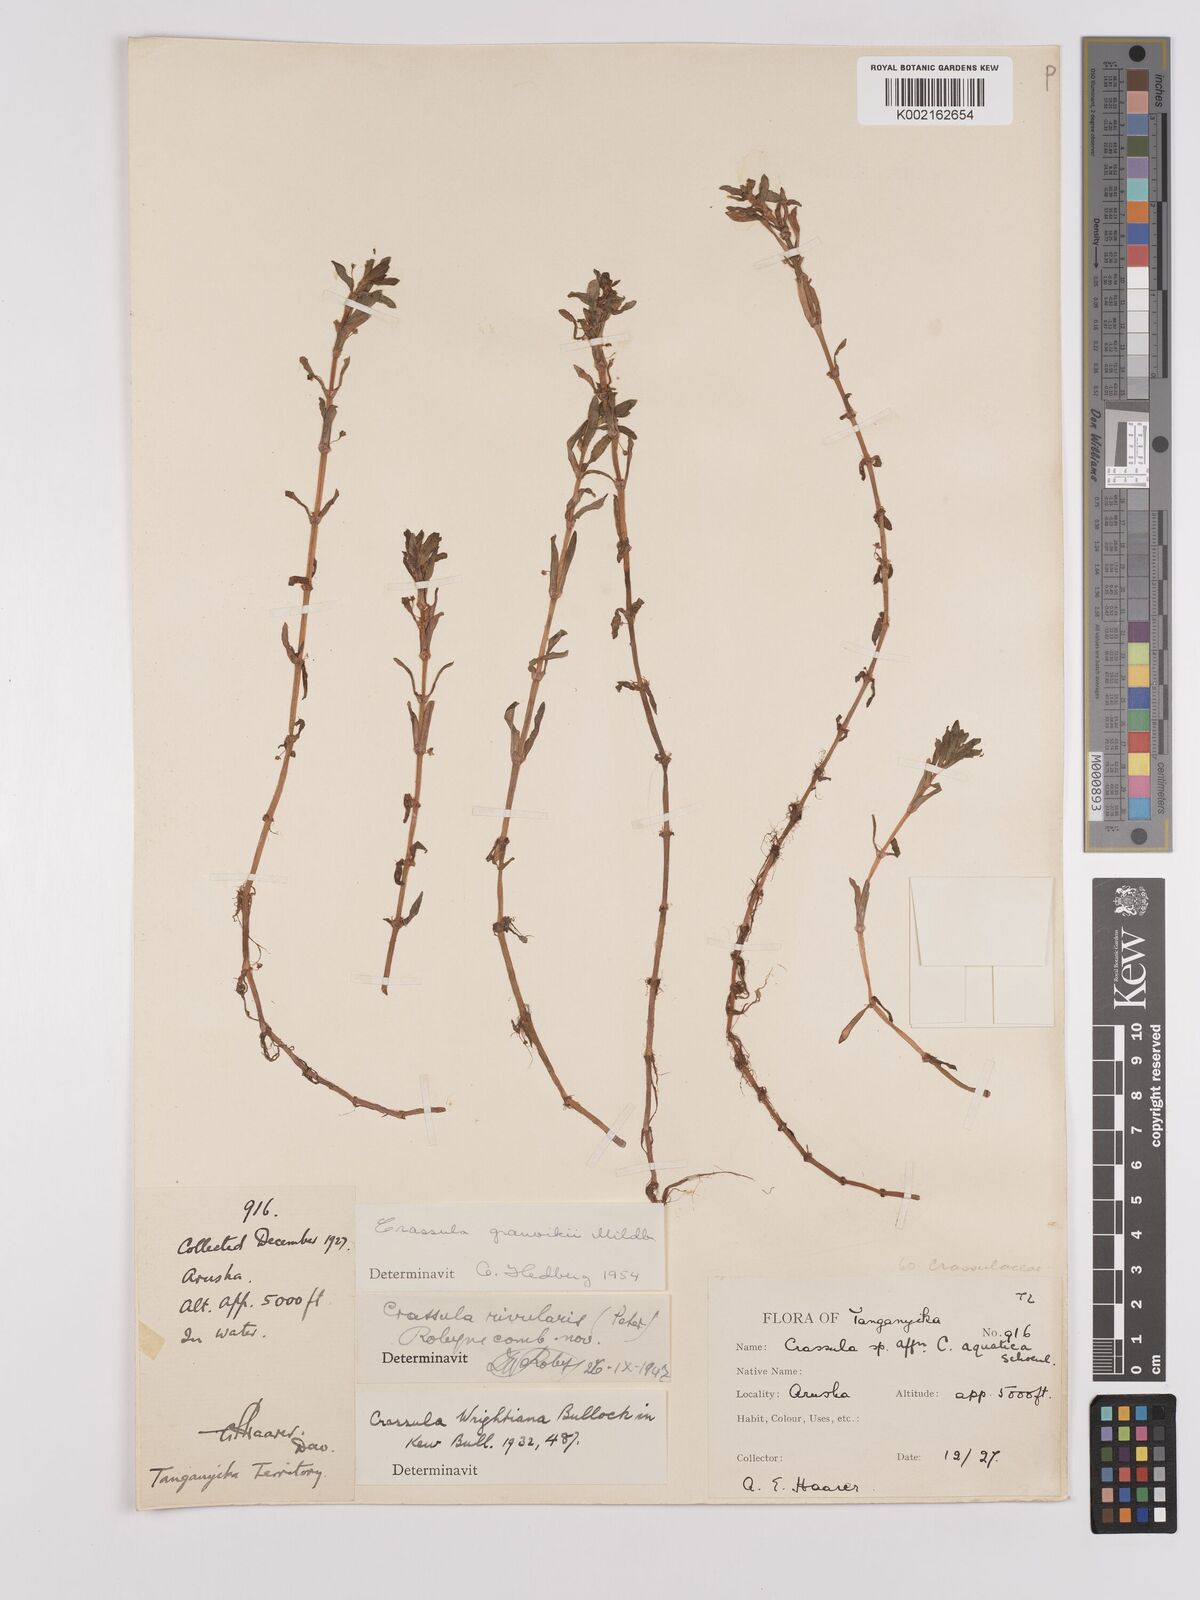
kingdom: Plantae
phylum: Tracheophyta
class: Magnoliopsida
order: Saxifragales
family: Crassulaceae
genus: Crassula
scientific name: Crassula granvikii
